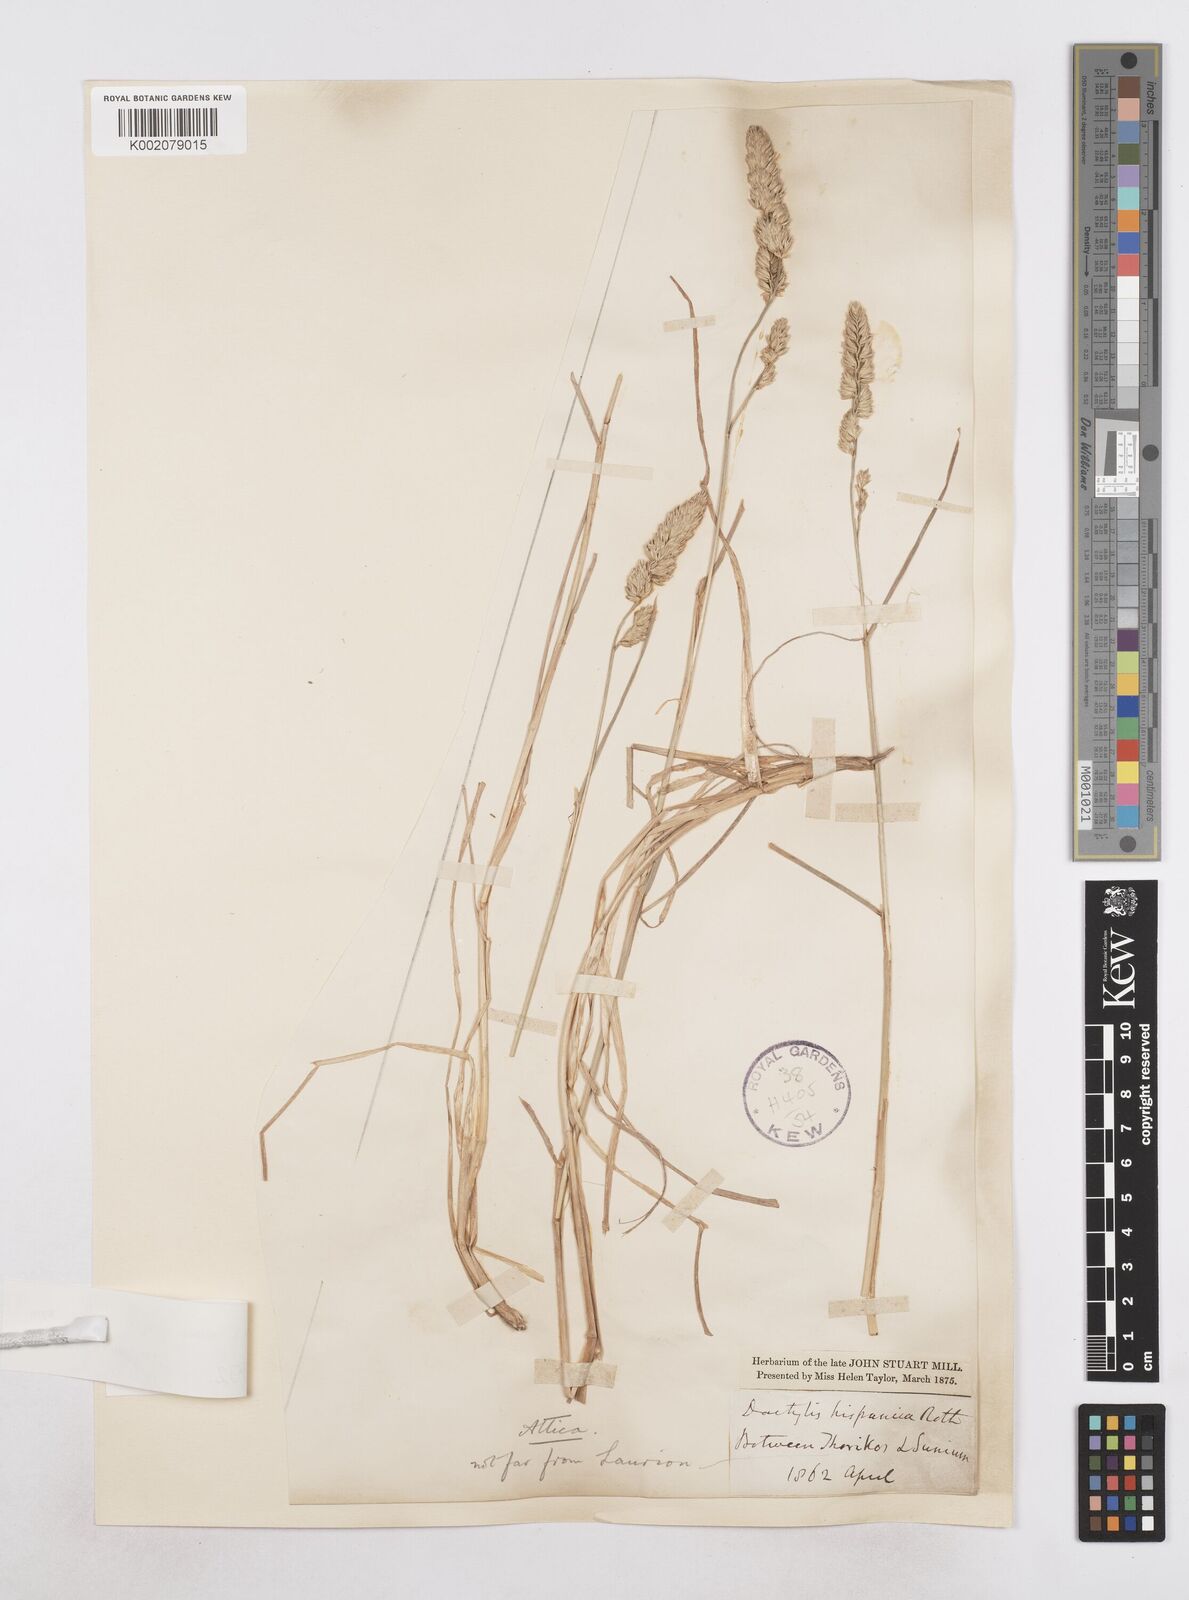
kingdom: Plantae
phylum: Tracheophyta
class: Liliopsida
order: Poales
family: Poaceae
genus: Dactylis
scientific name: Dactylis glomerata
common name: Orchardgrass
